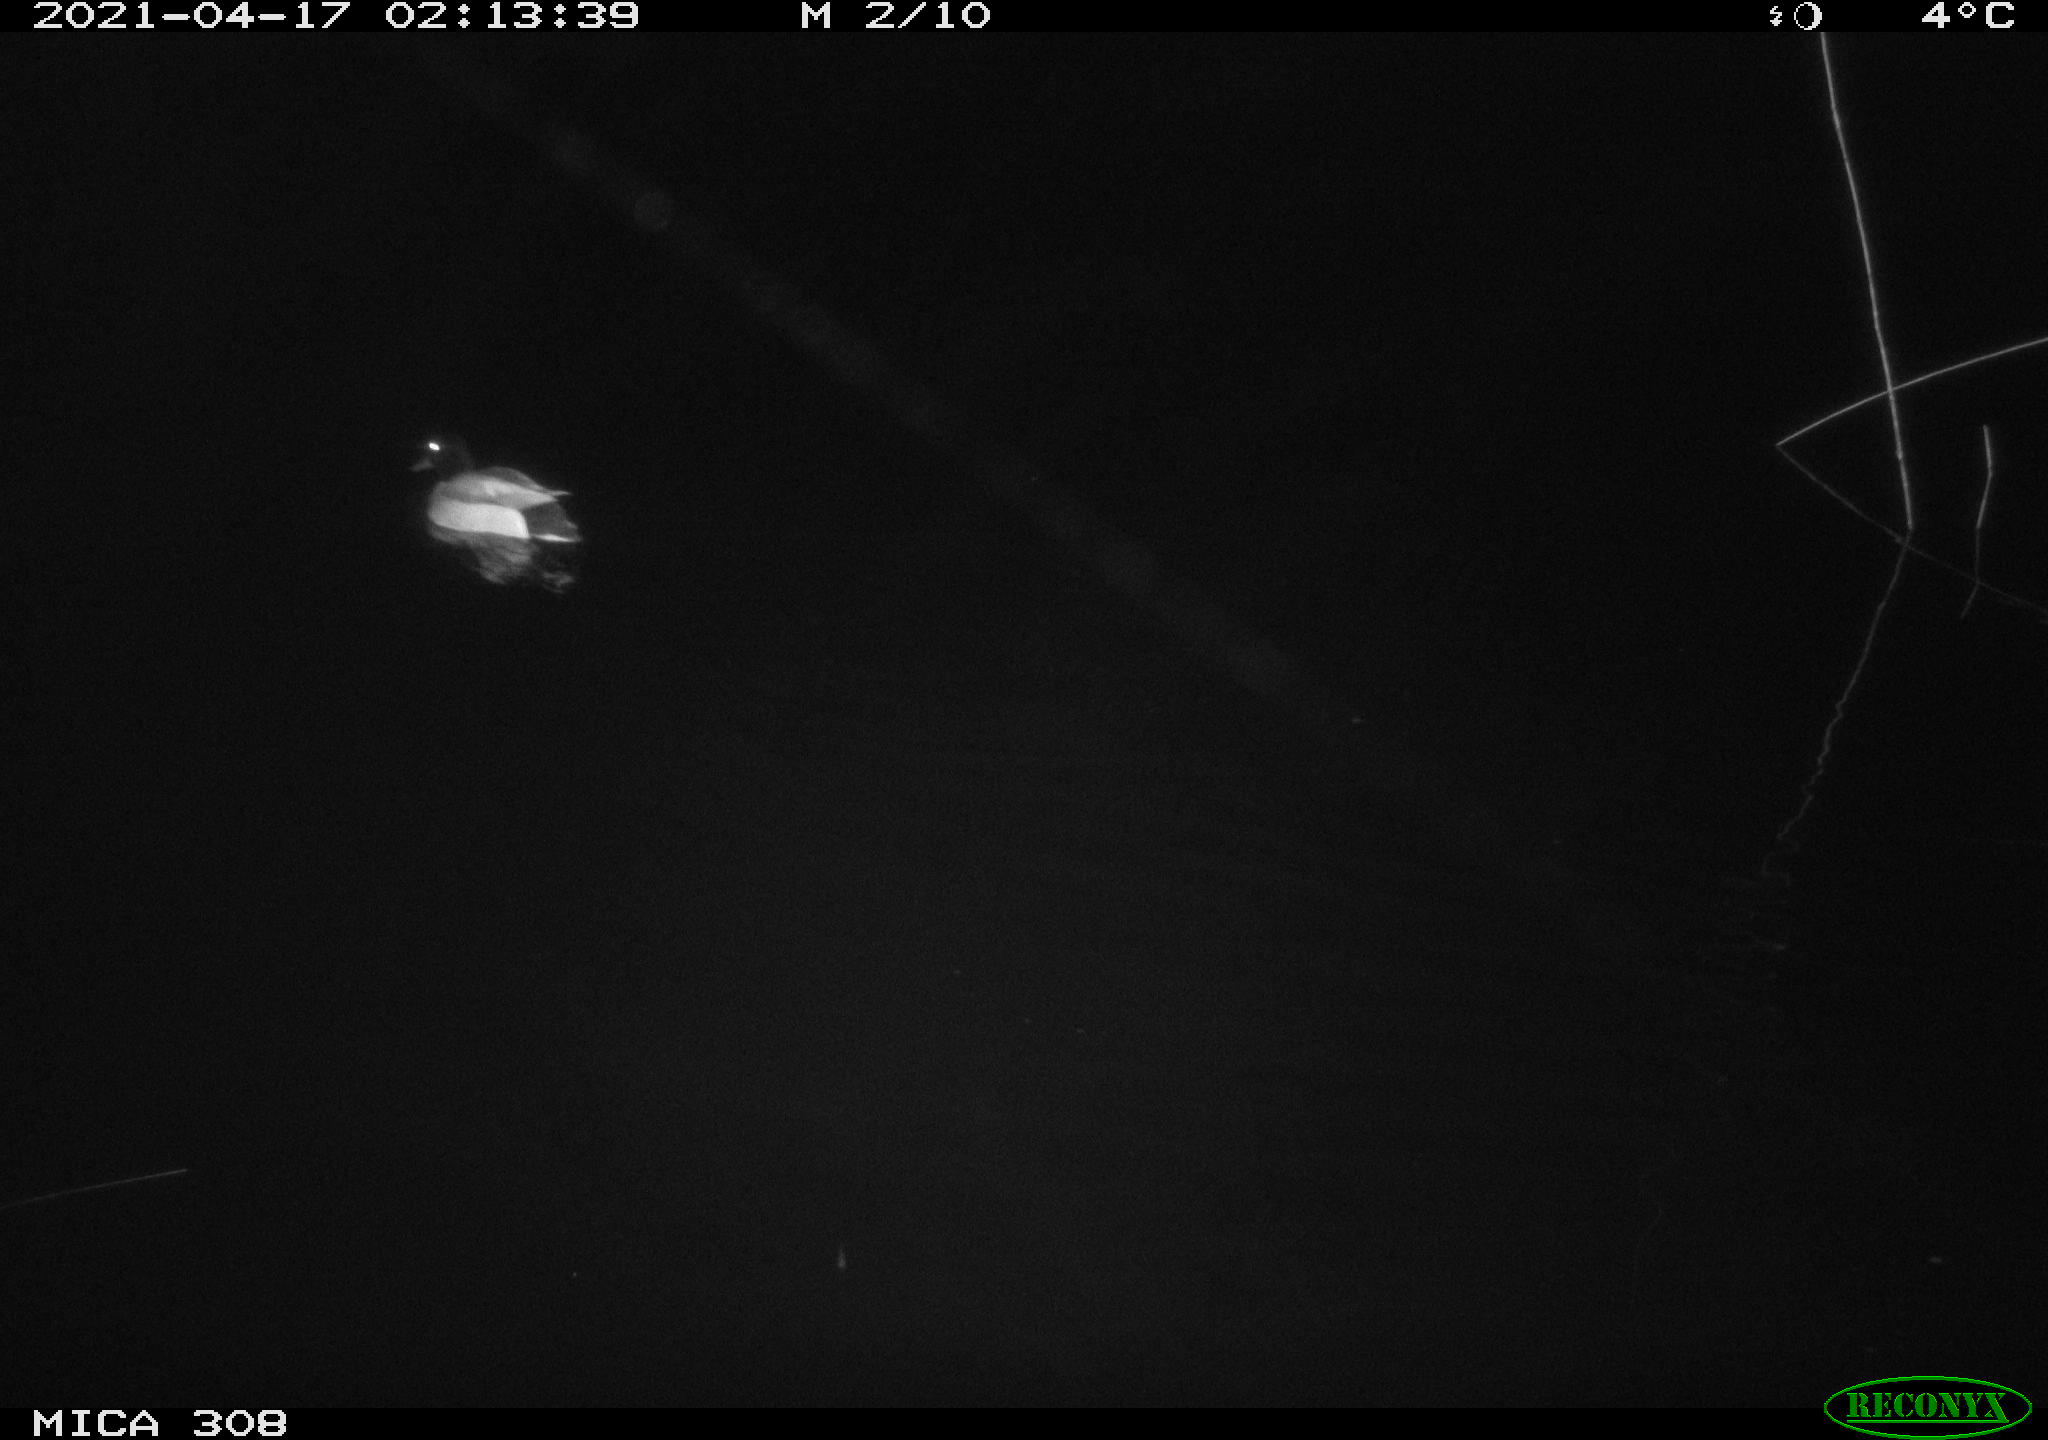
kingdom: Animalia
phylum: Chordata
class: Aves
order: Anseriformes
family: Anatidae
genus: Anas
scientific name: Anas platyrhynchos
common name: Mallard
